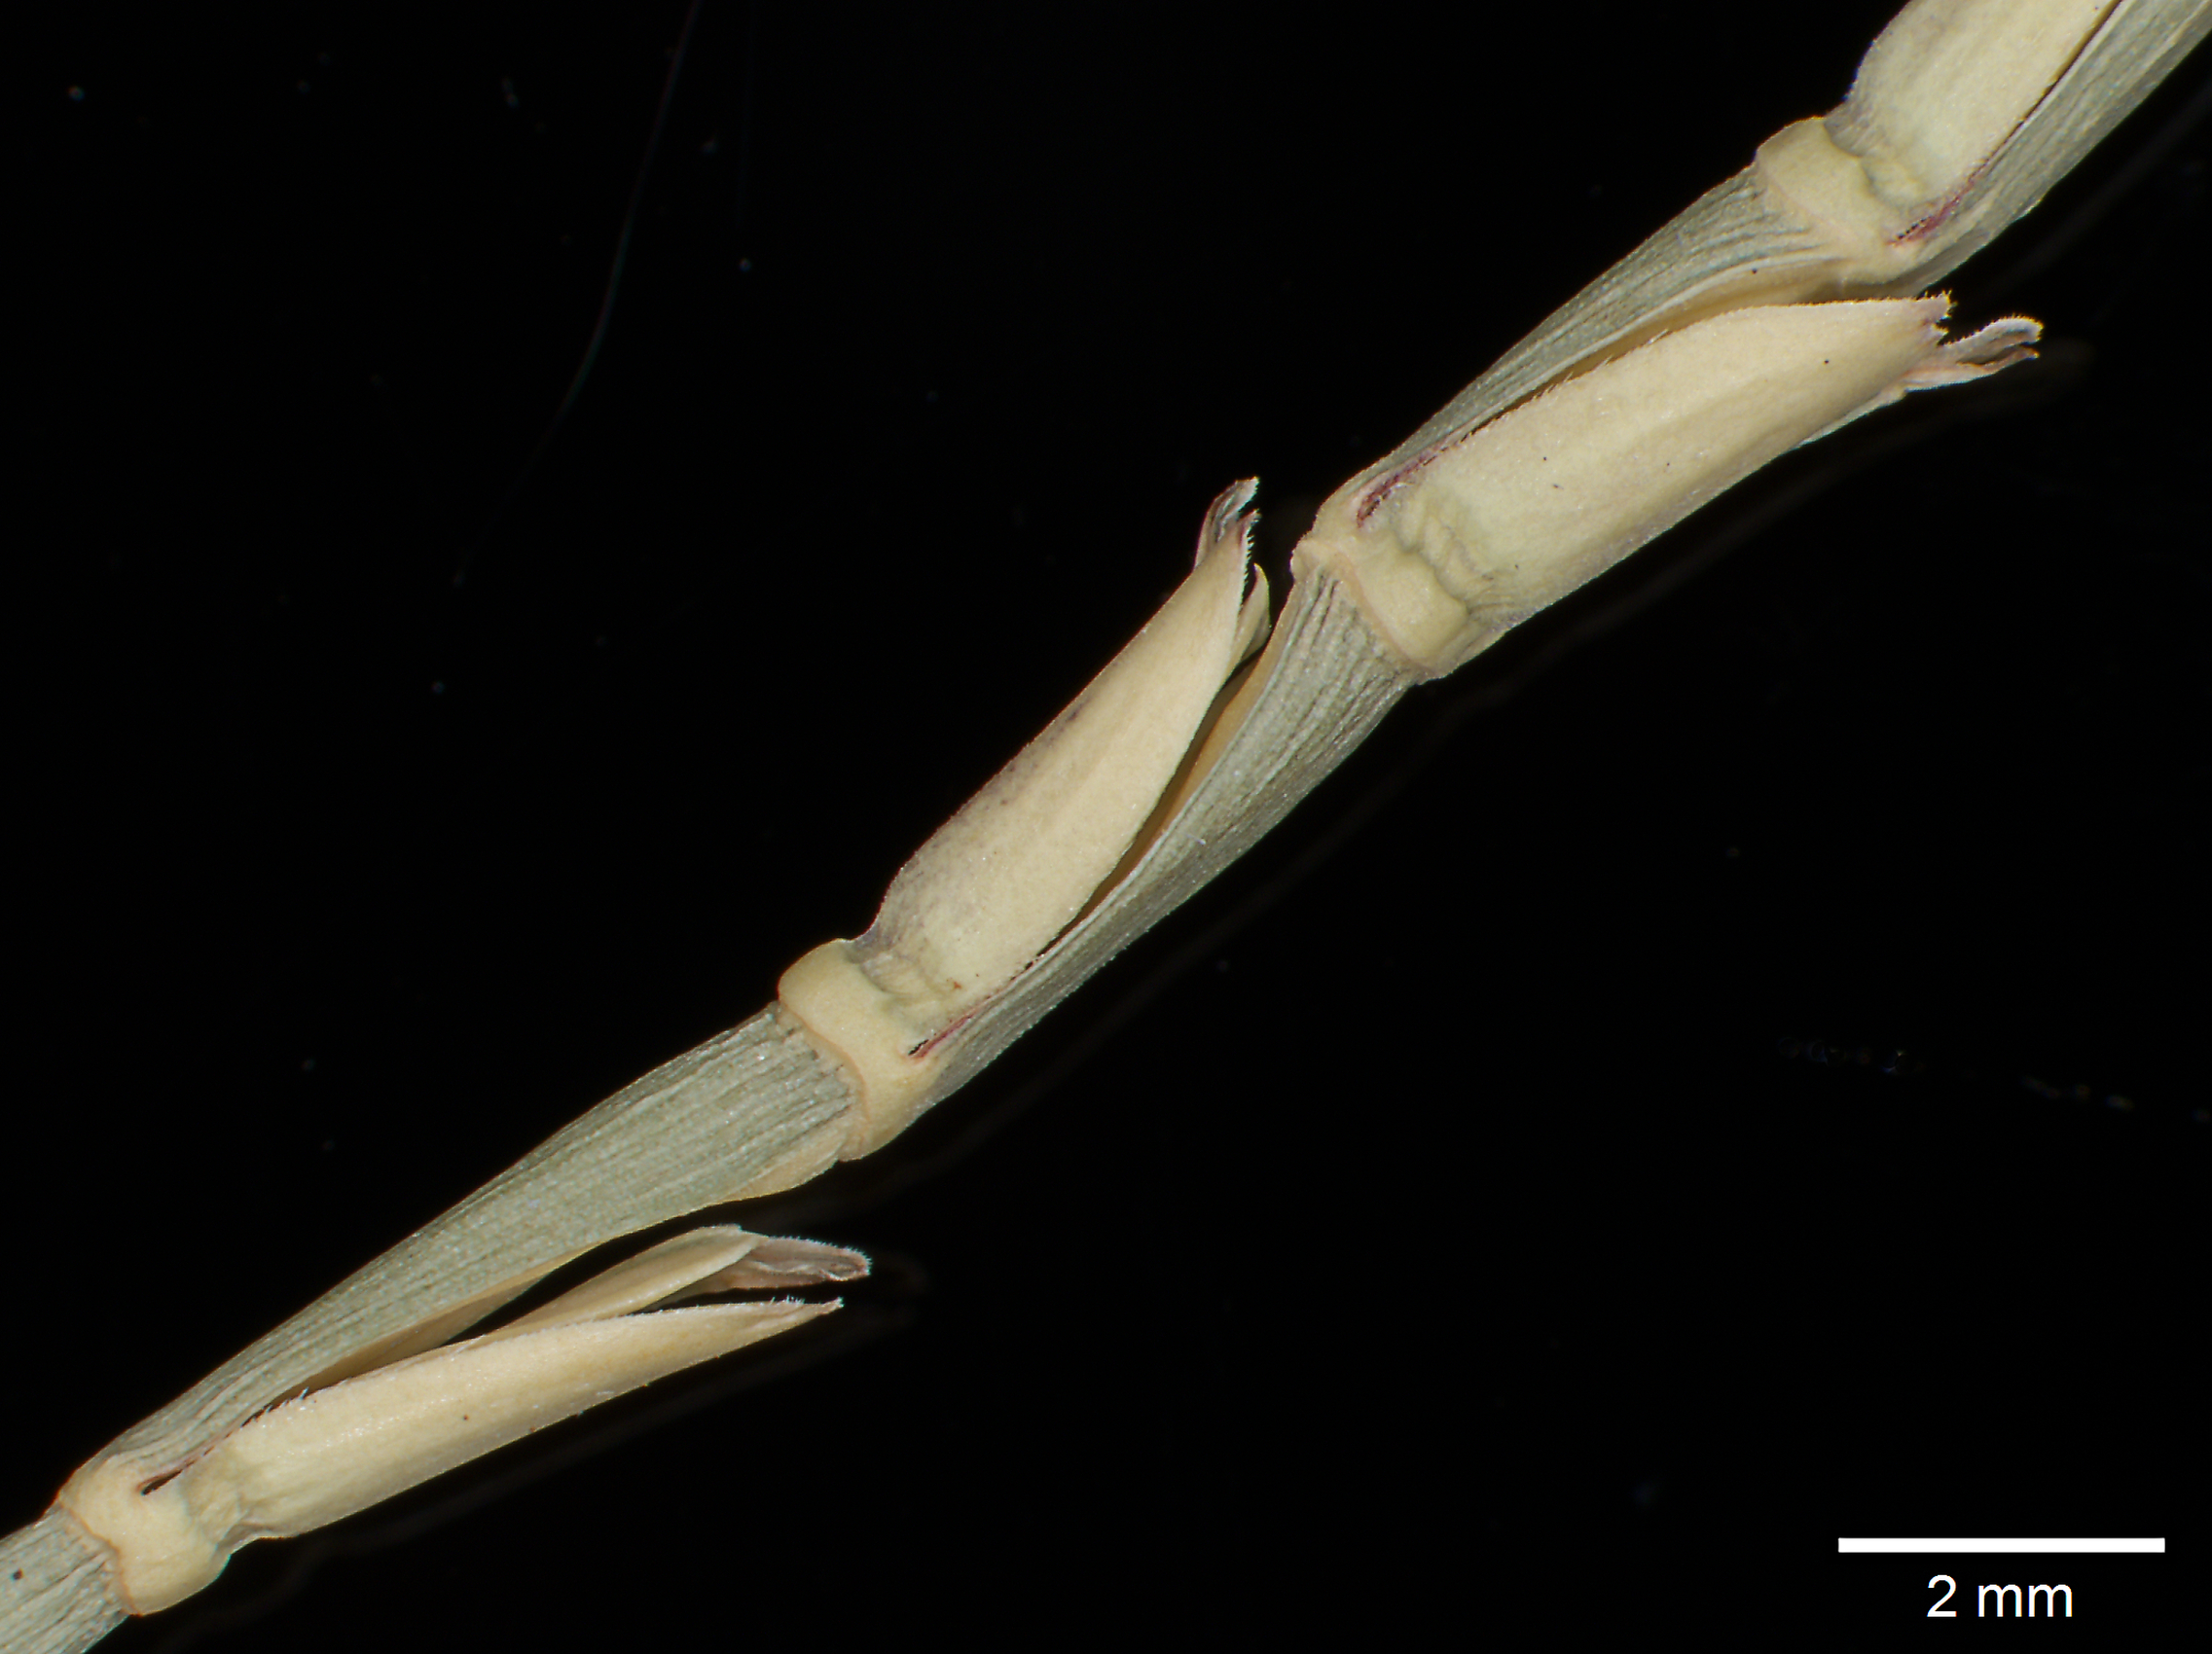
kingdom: Plantae
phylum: Tracheophyta
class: Liliopsida
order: Poales
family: Poaceae
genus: Rottboellia
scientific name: Rottboellia impressa
